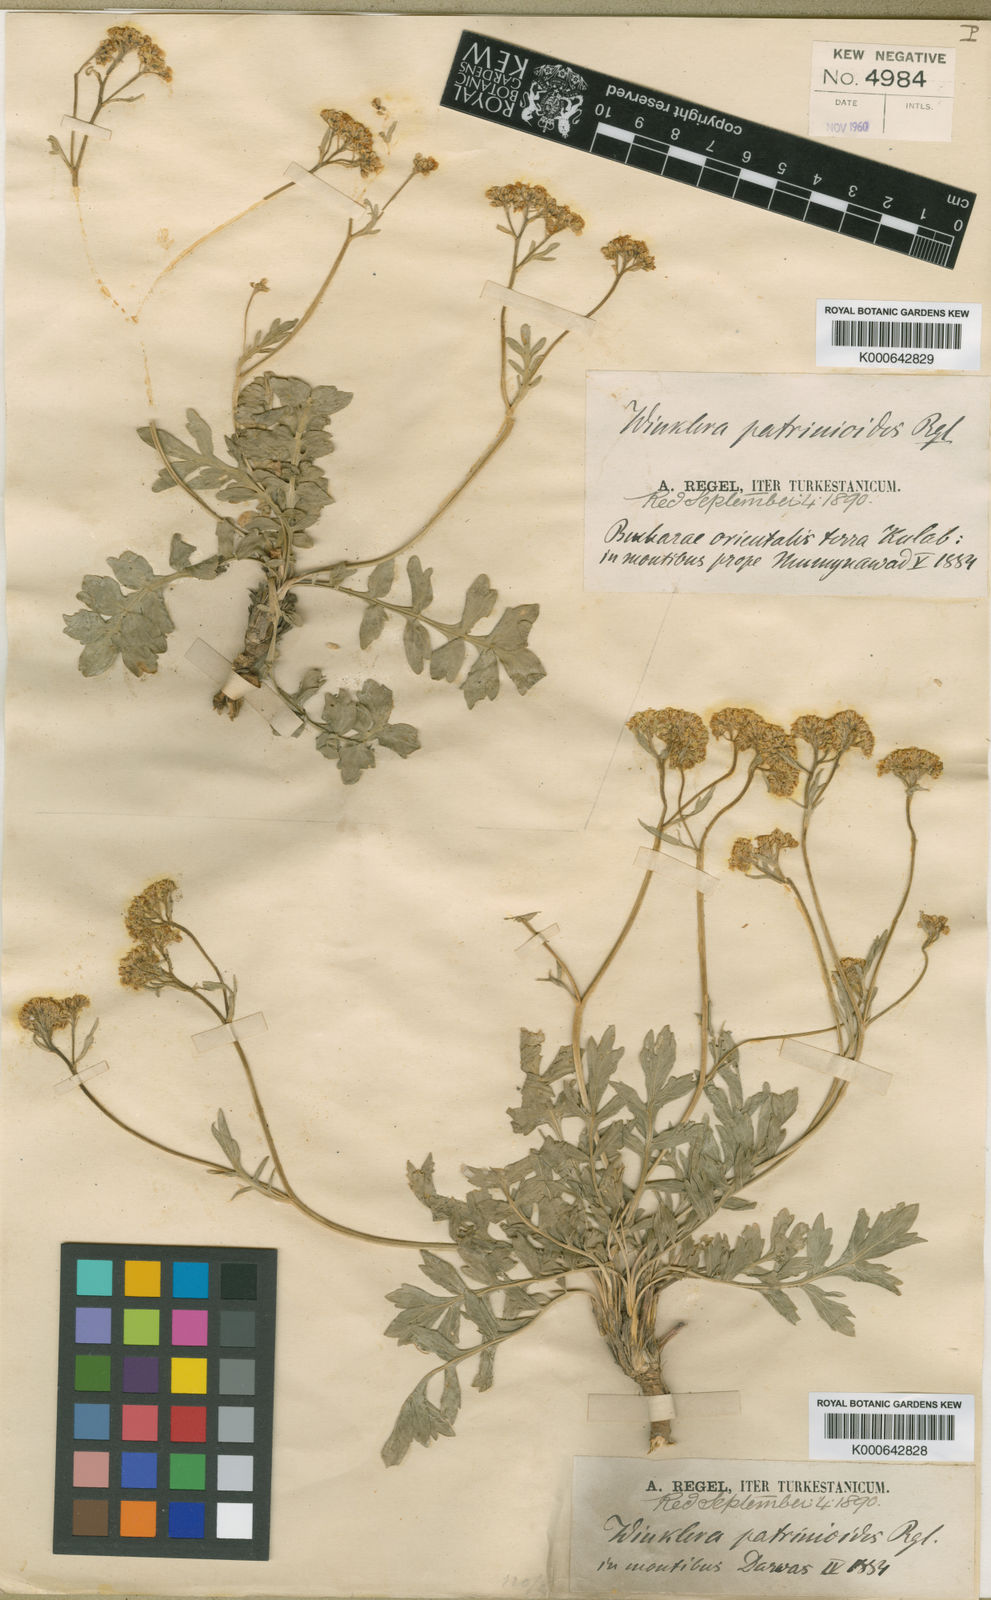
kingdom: Plantae
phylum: Tracheophyta
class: Magnoliopsida
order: Brassicales
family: Brassicaceae
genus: Lepidium
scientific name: Lepidium
